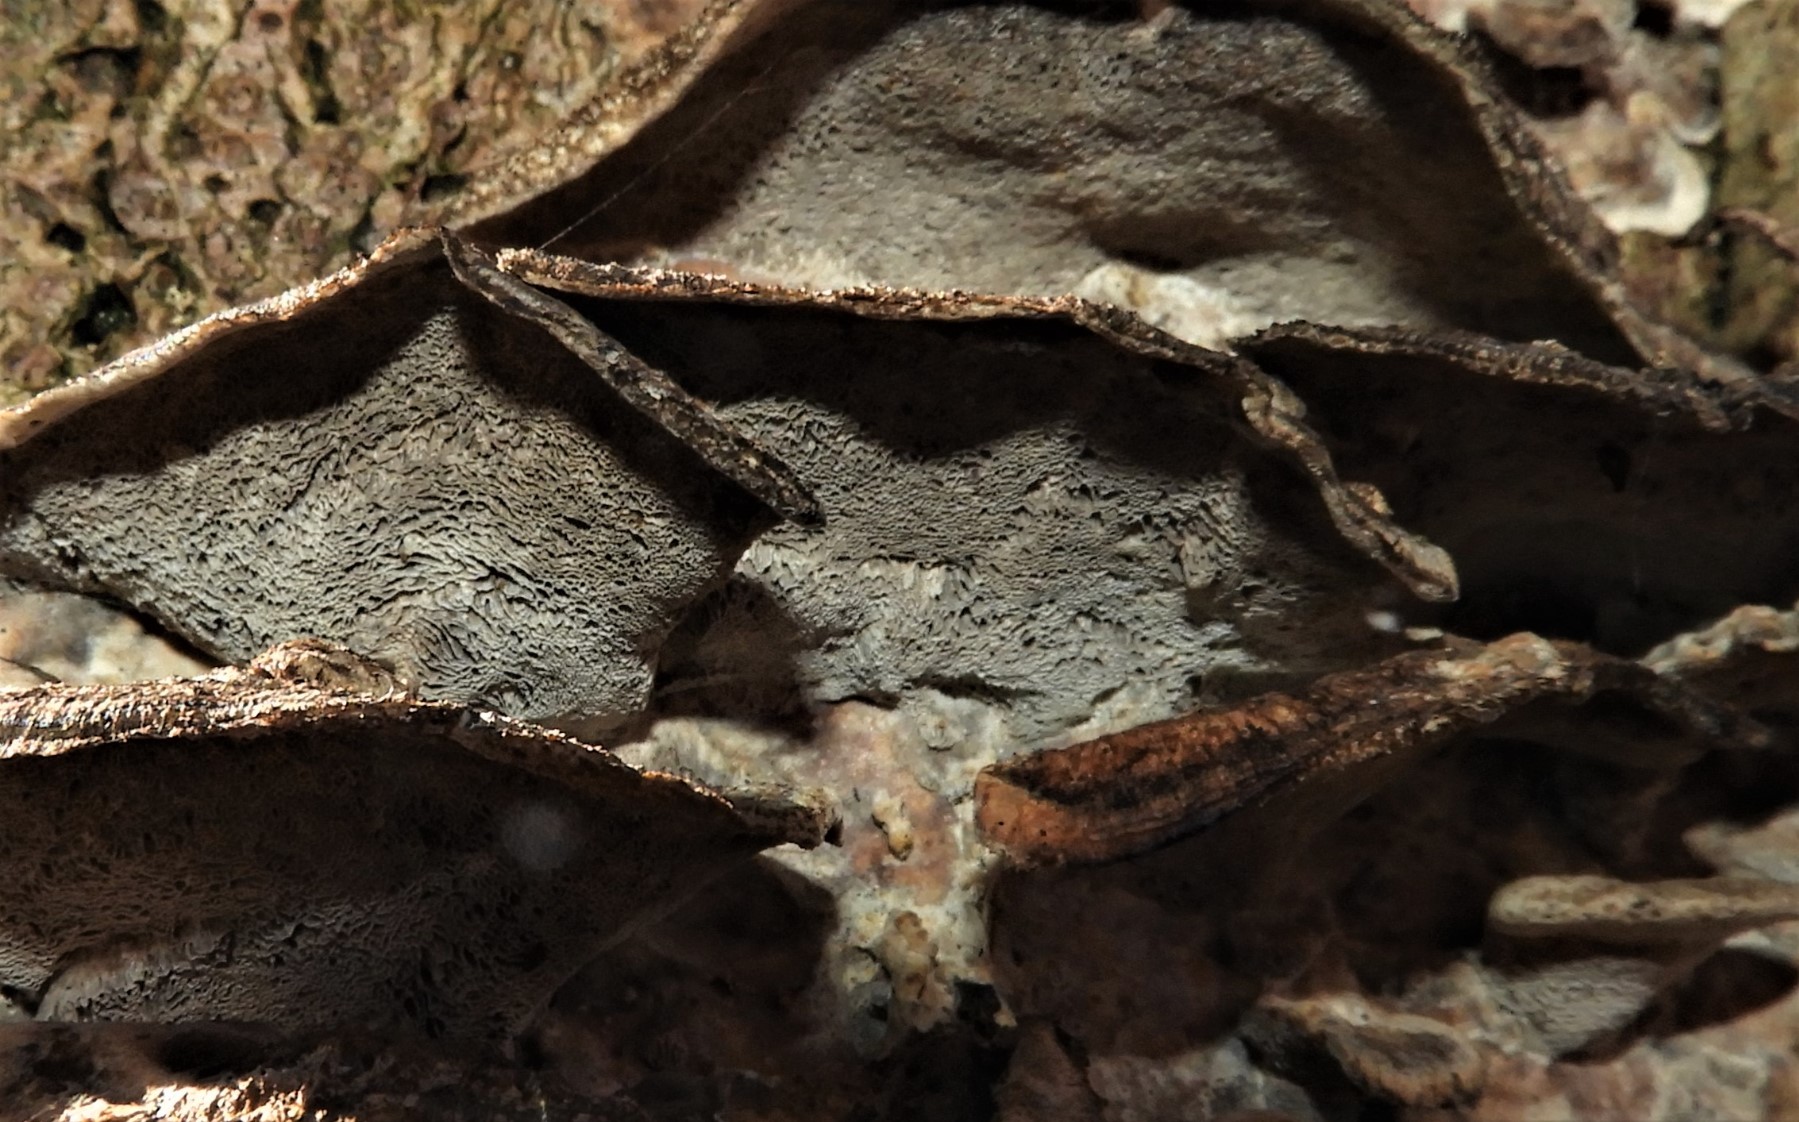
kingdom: Fungi
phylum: Basidiomycota
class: Agaricomycetes
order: Polyporales
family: Phanerochaetaceae
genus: Bjerkandera
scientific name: Bjerkandera adusta
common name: sveden sodporesvamp
